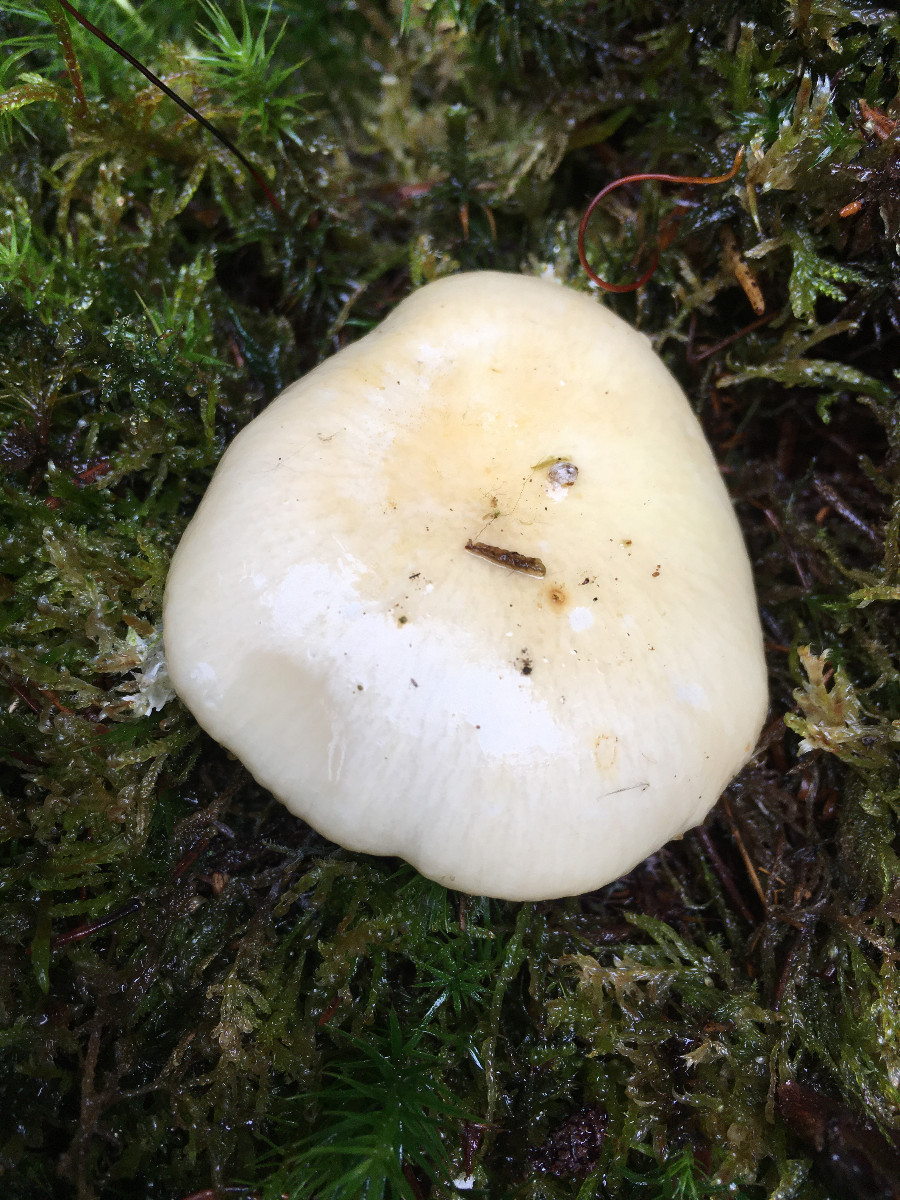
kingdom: Fungi
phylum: Basidiomycota
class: Agaricomycetes
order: Russulales
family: Russulaceae
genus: Russula
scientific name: Russula ochroleuca
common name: okkergul skørhat
